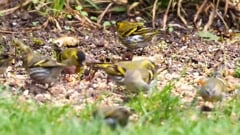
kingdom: Animalia
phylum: Chordata
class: Aves
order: Passeriformes
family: Fringillidae
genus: Spinus
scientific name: Spinus spinus
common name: Eurasian siskin
